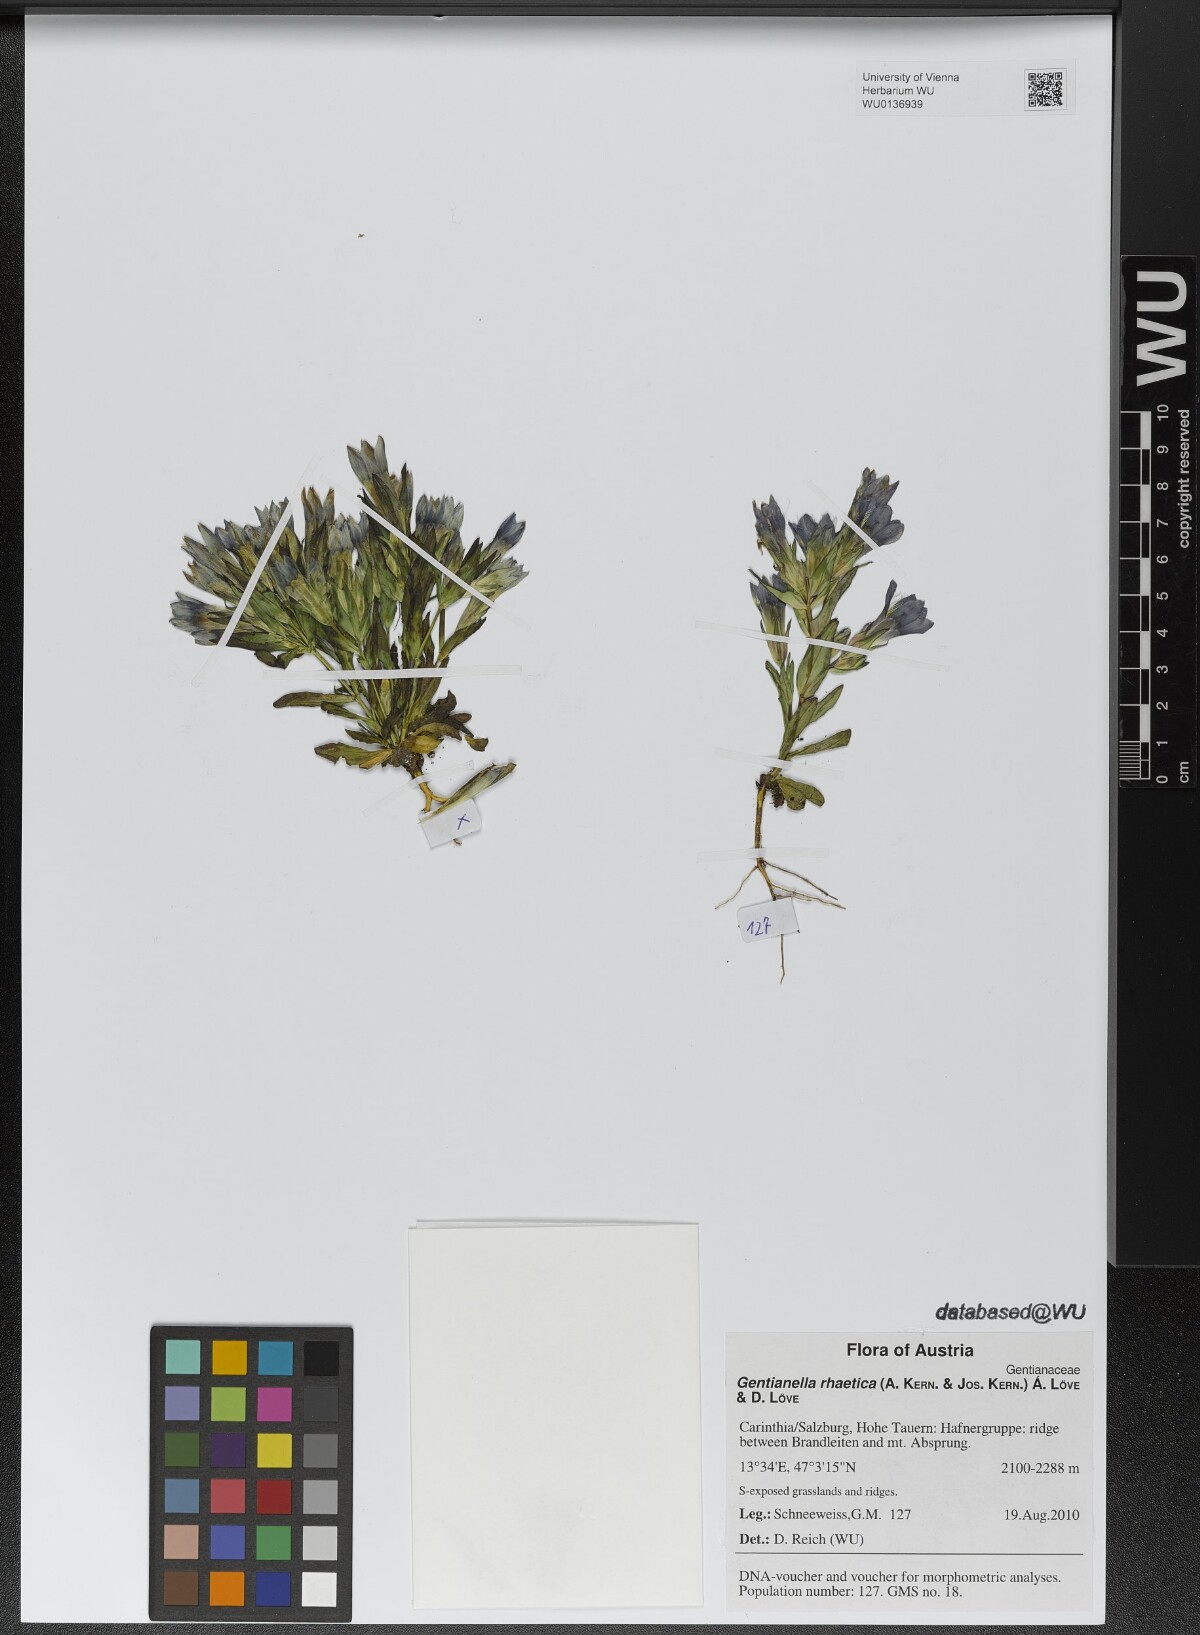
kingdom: Plantae
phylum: Tracheophyta
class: Magnoliopsida
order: Gentianales
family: Gentianaceae
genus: Gentianella
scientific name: Gentianella rhaetica
